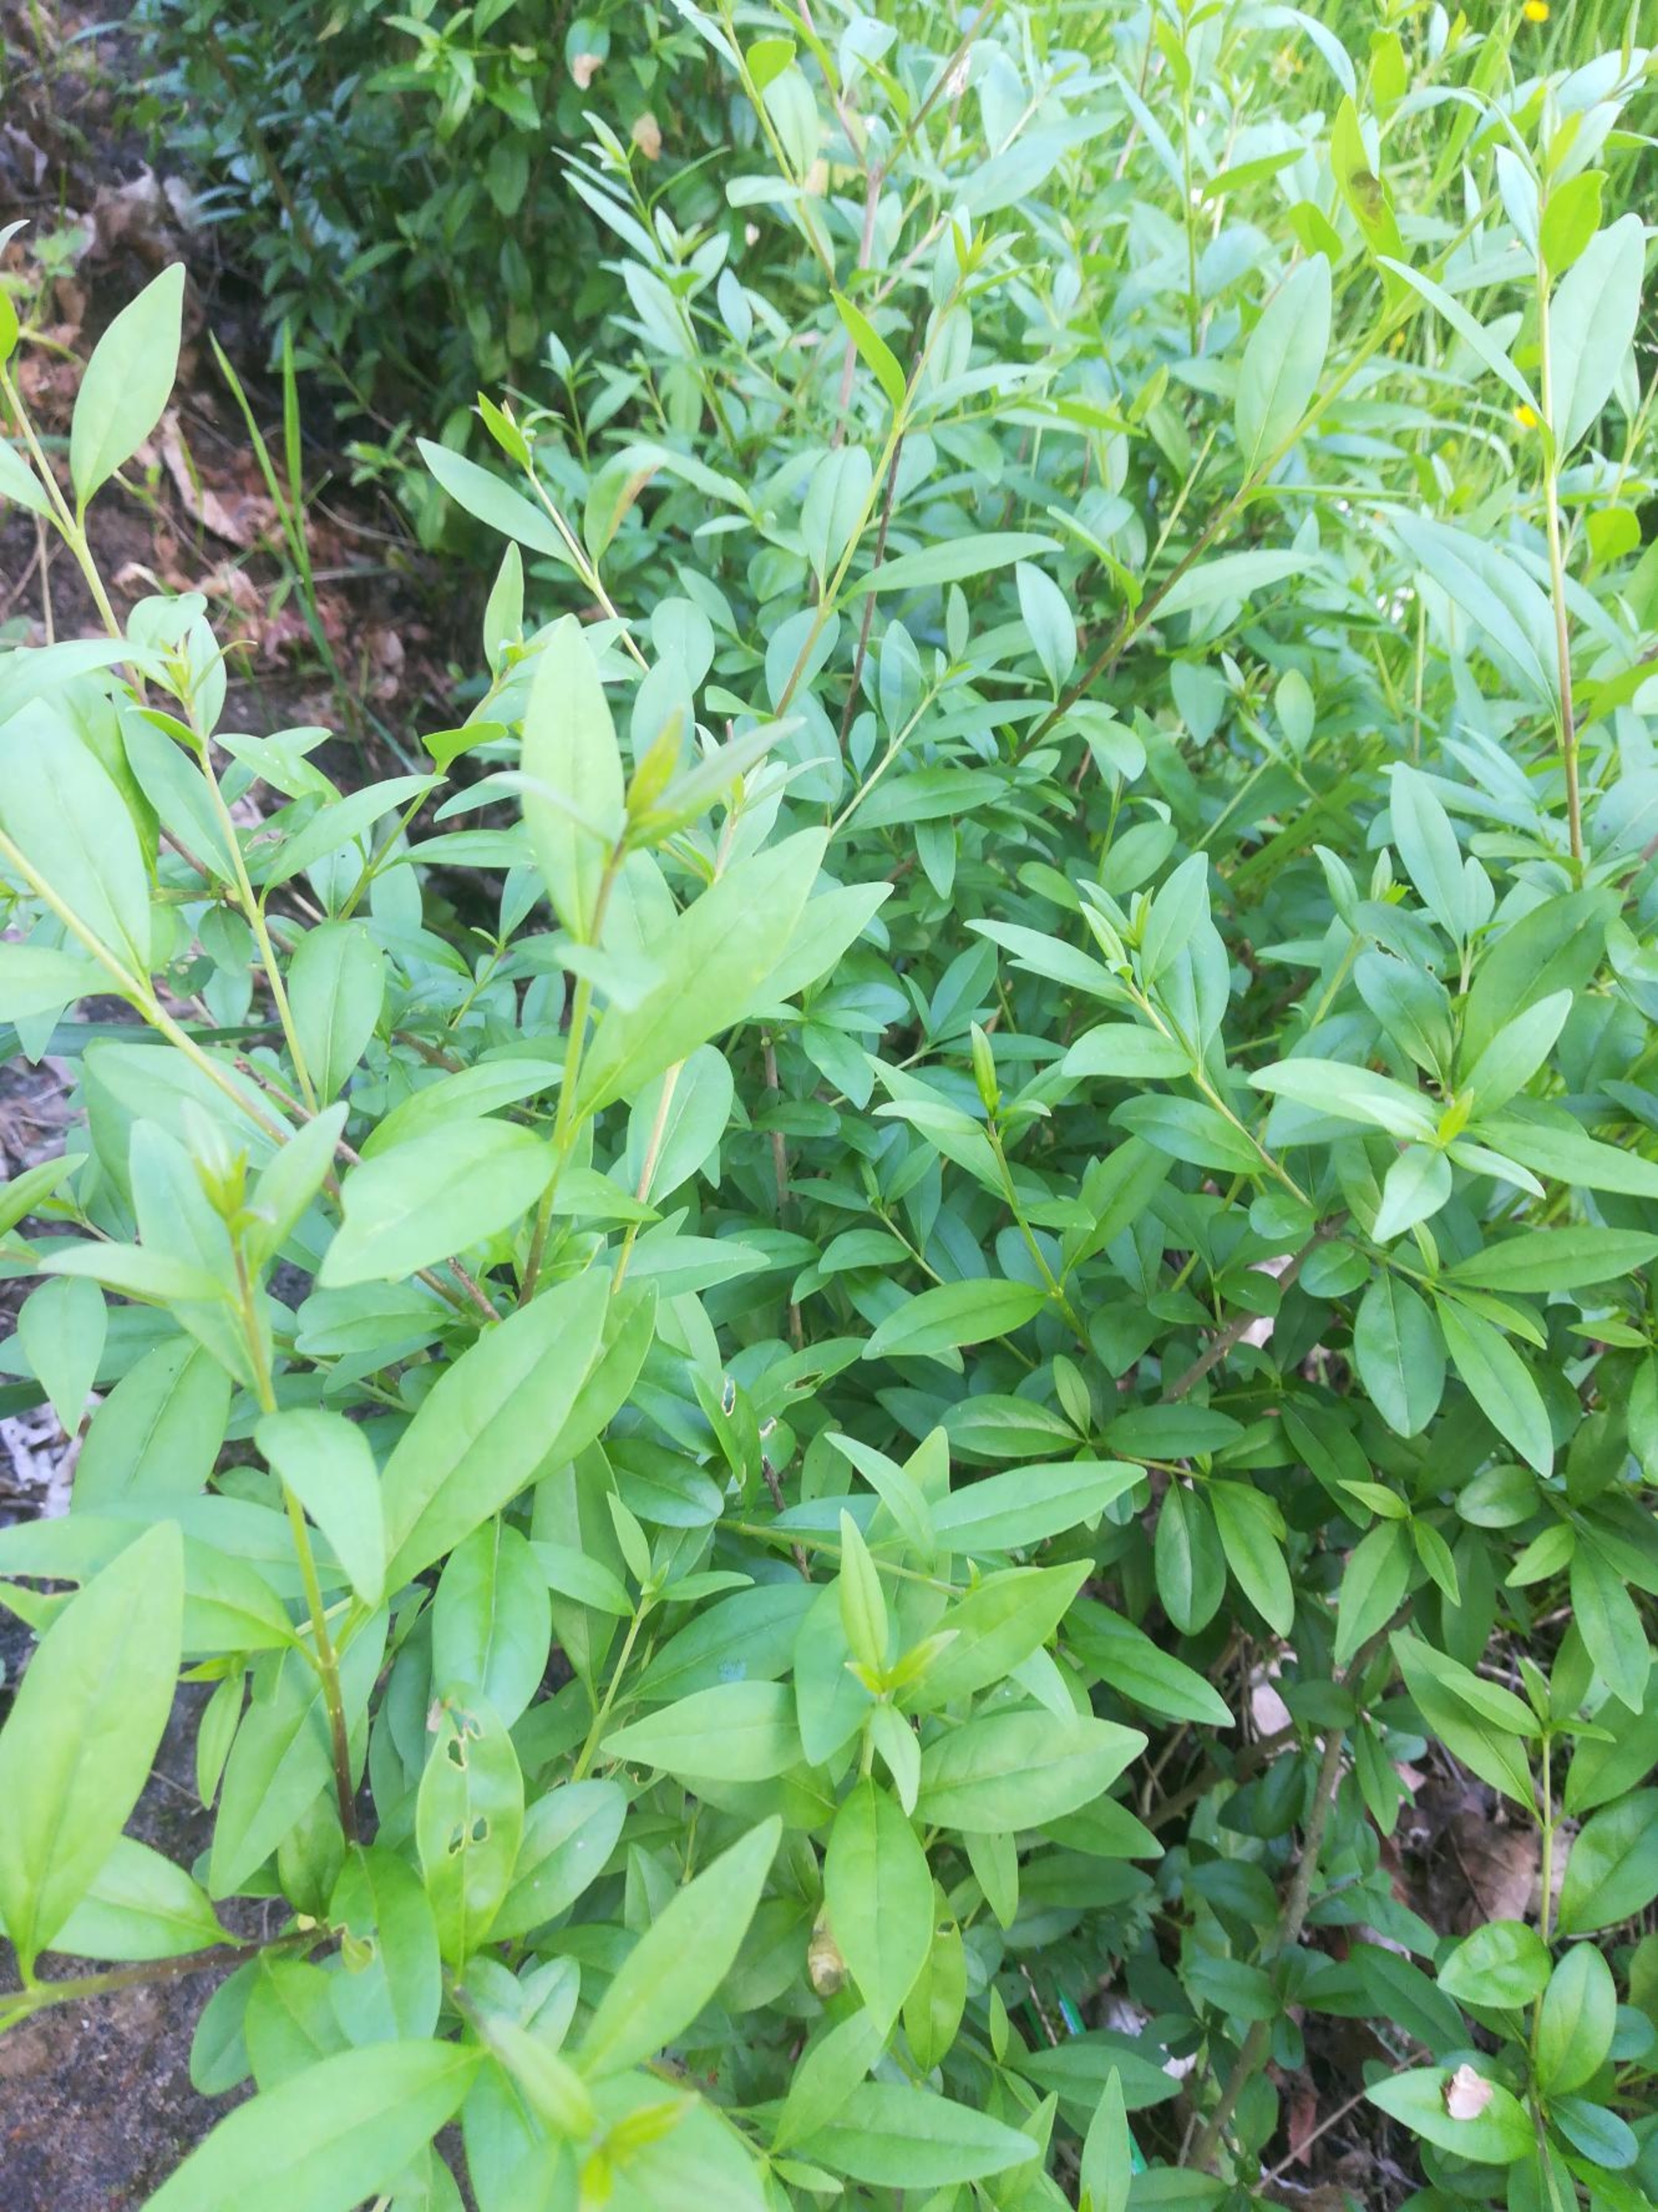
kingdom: Plantae
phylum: Tracheophyta
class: Magnoliopsida
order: Lamiales
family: Oleaceae
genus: Ligustrum
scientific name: Ligustrum vulgare
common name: Liguster
